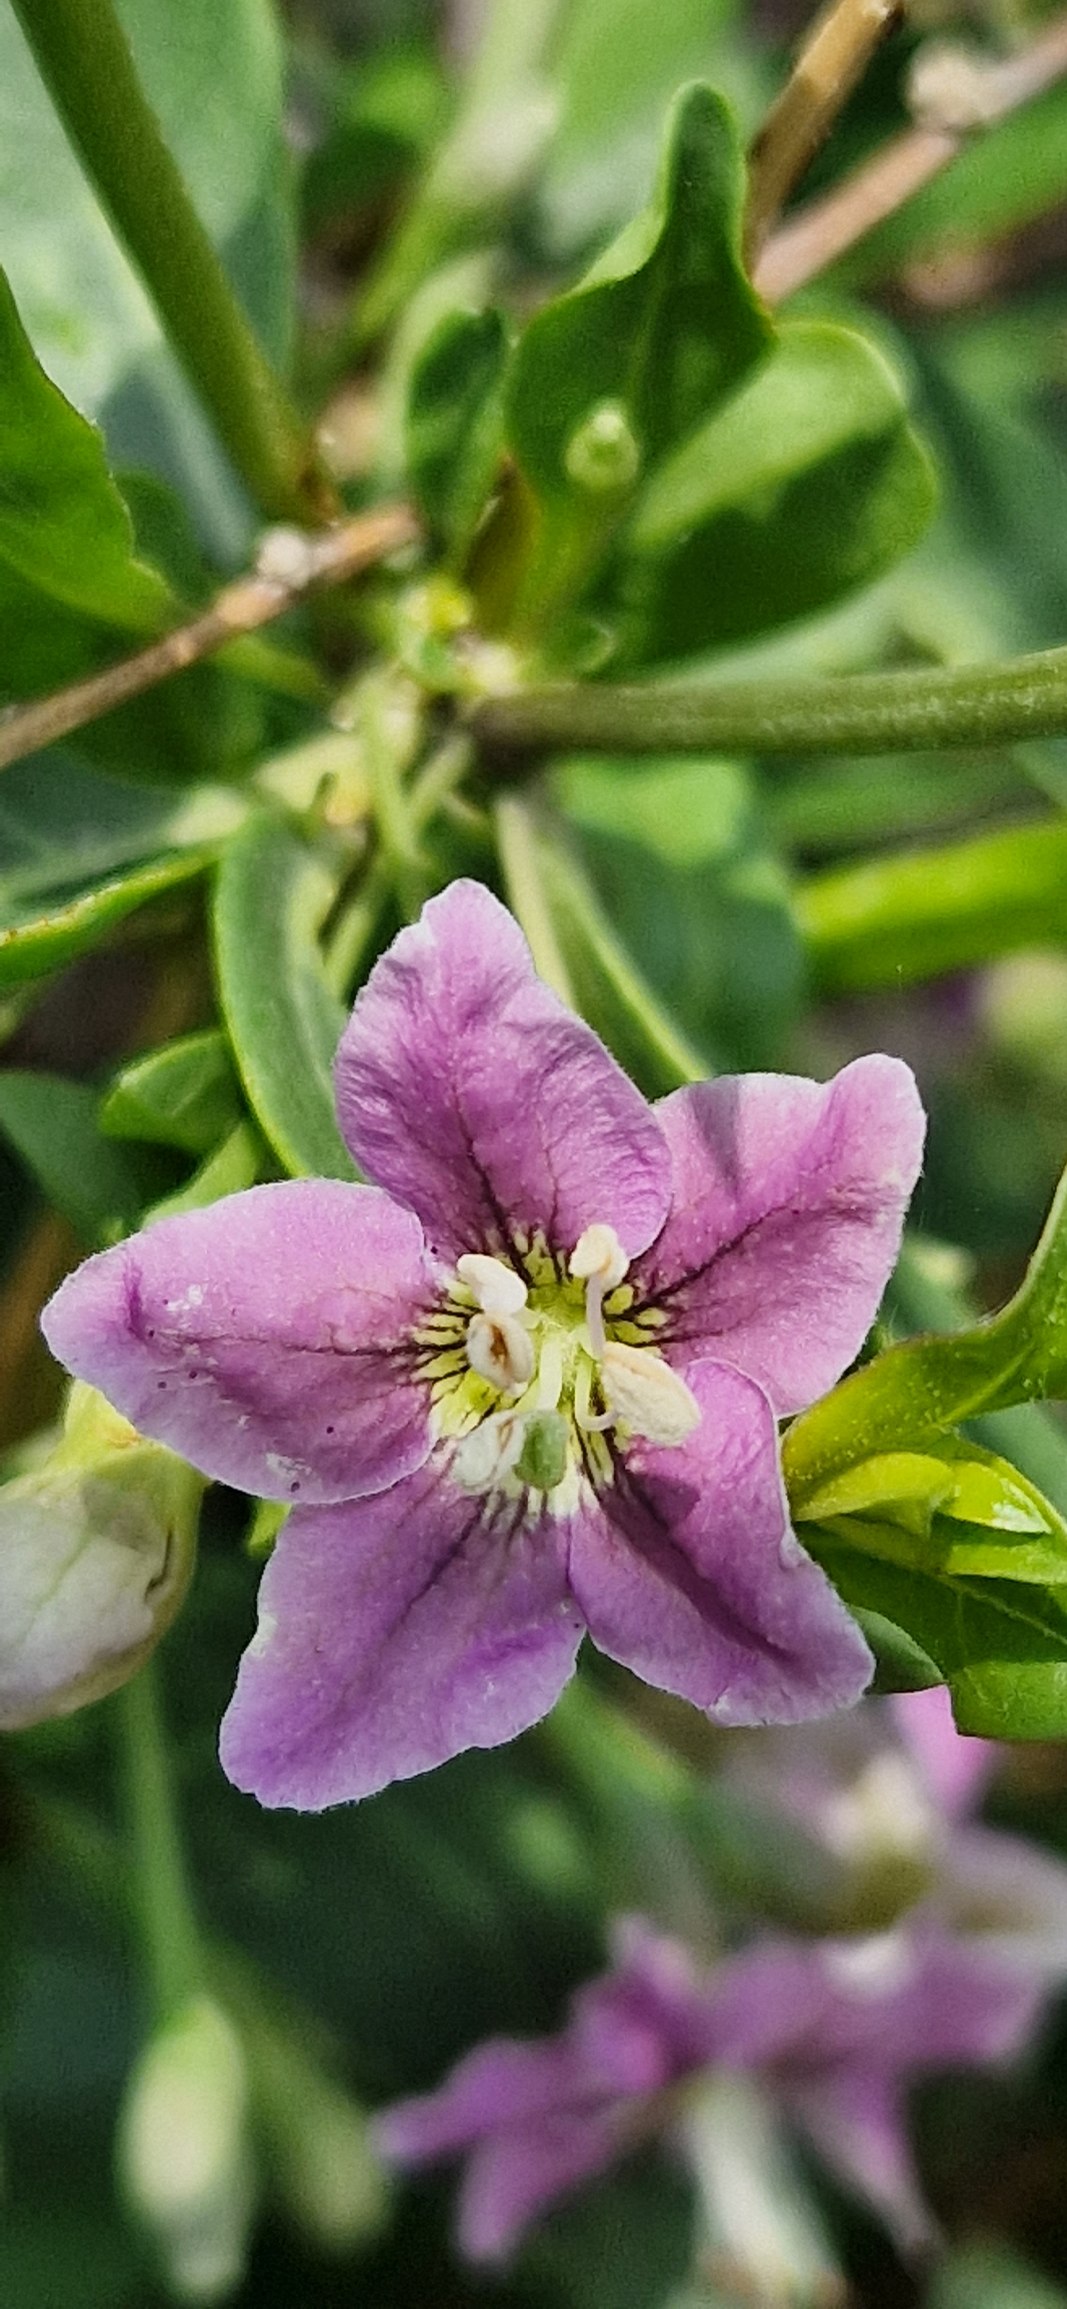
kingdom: Plantae
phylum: Tracheophyta
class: Magnoliopsida
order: Solanales
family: Solanaceae
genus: Lycium
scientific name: Lycium barbarum
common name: Bukketorn
